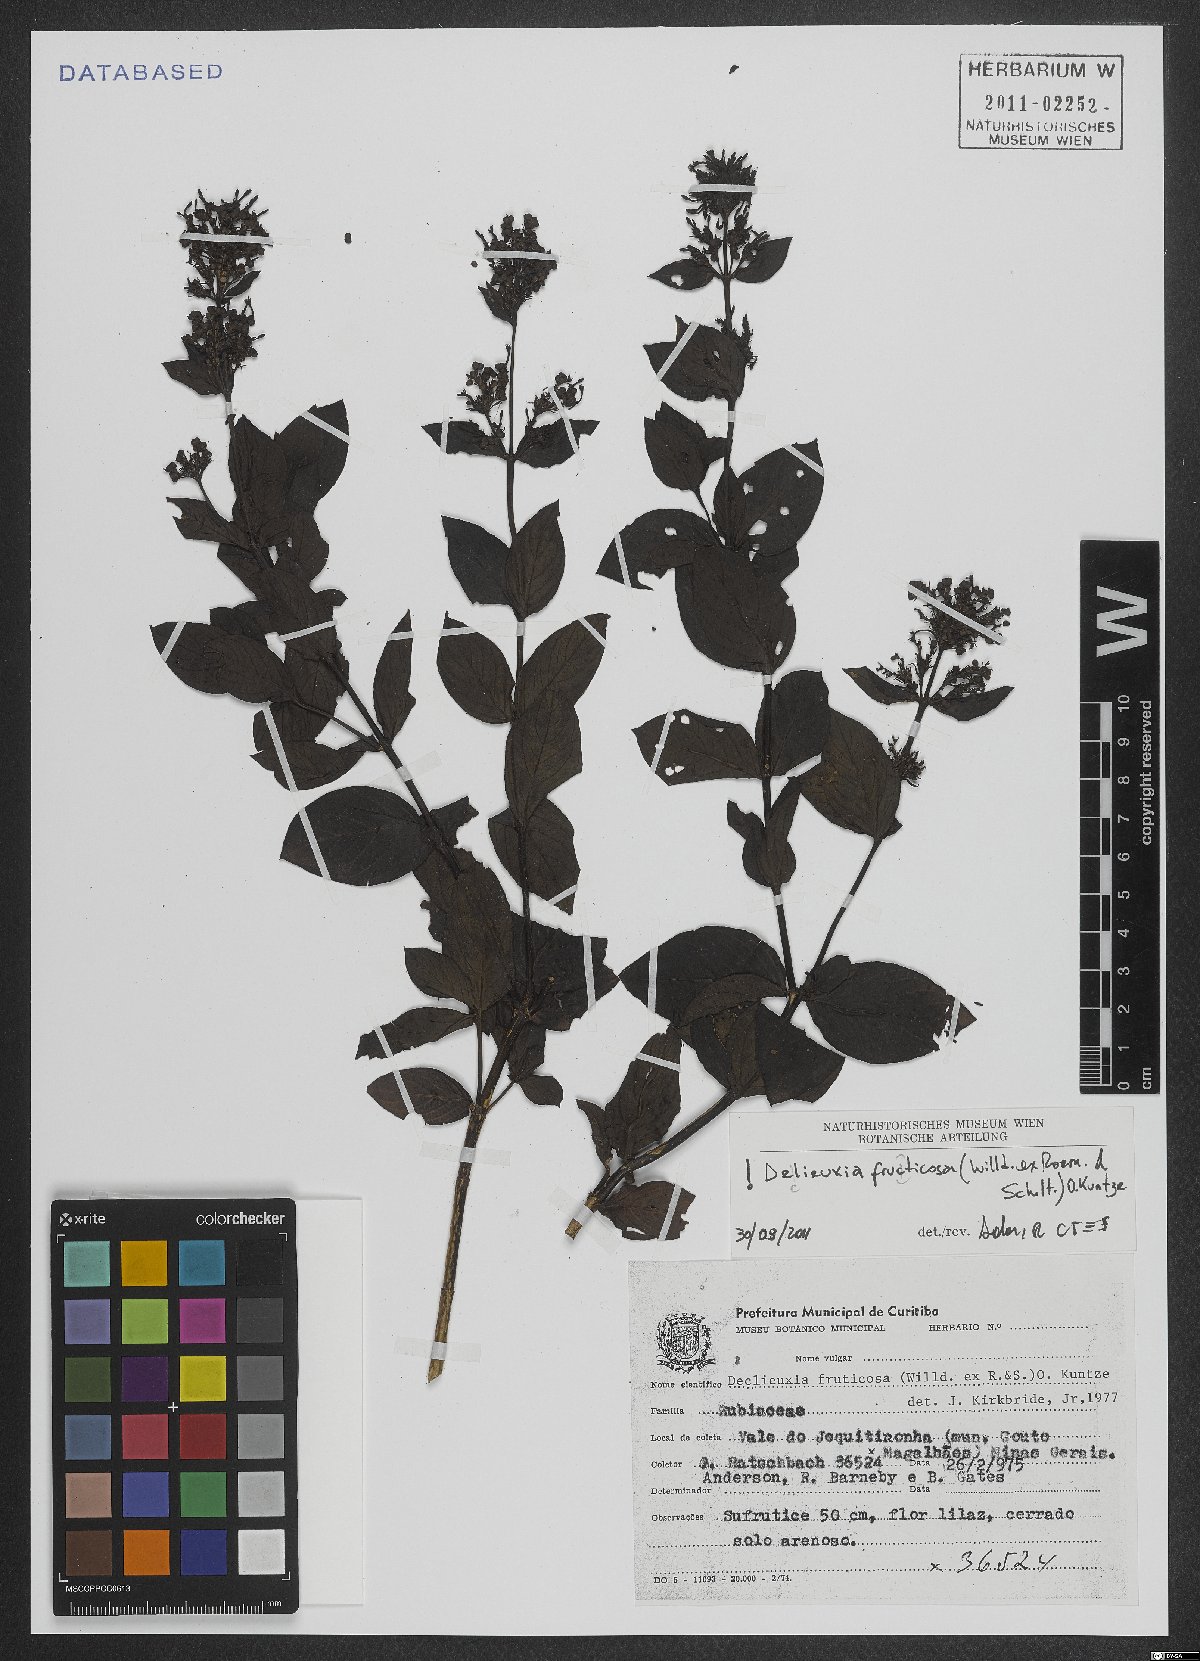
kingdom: Plantae
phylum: Tracheophyta
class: Magnoliopsida
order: Gentianales
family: Rubiaceae
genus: Declieuxia
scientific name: Declieuxia fruticosa
